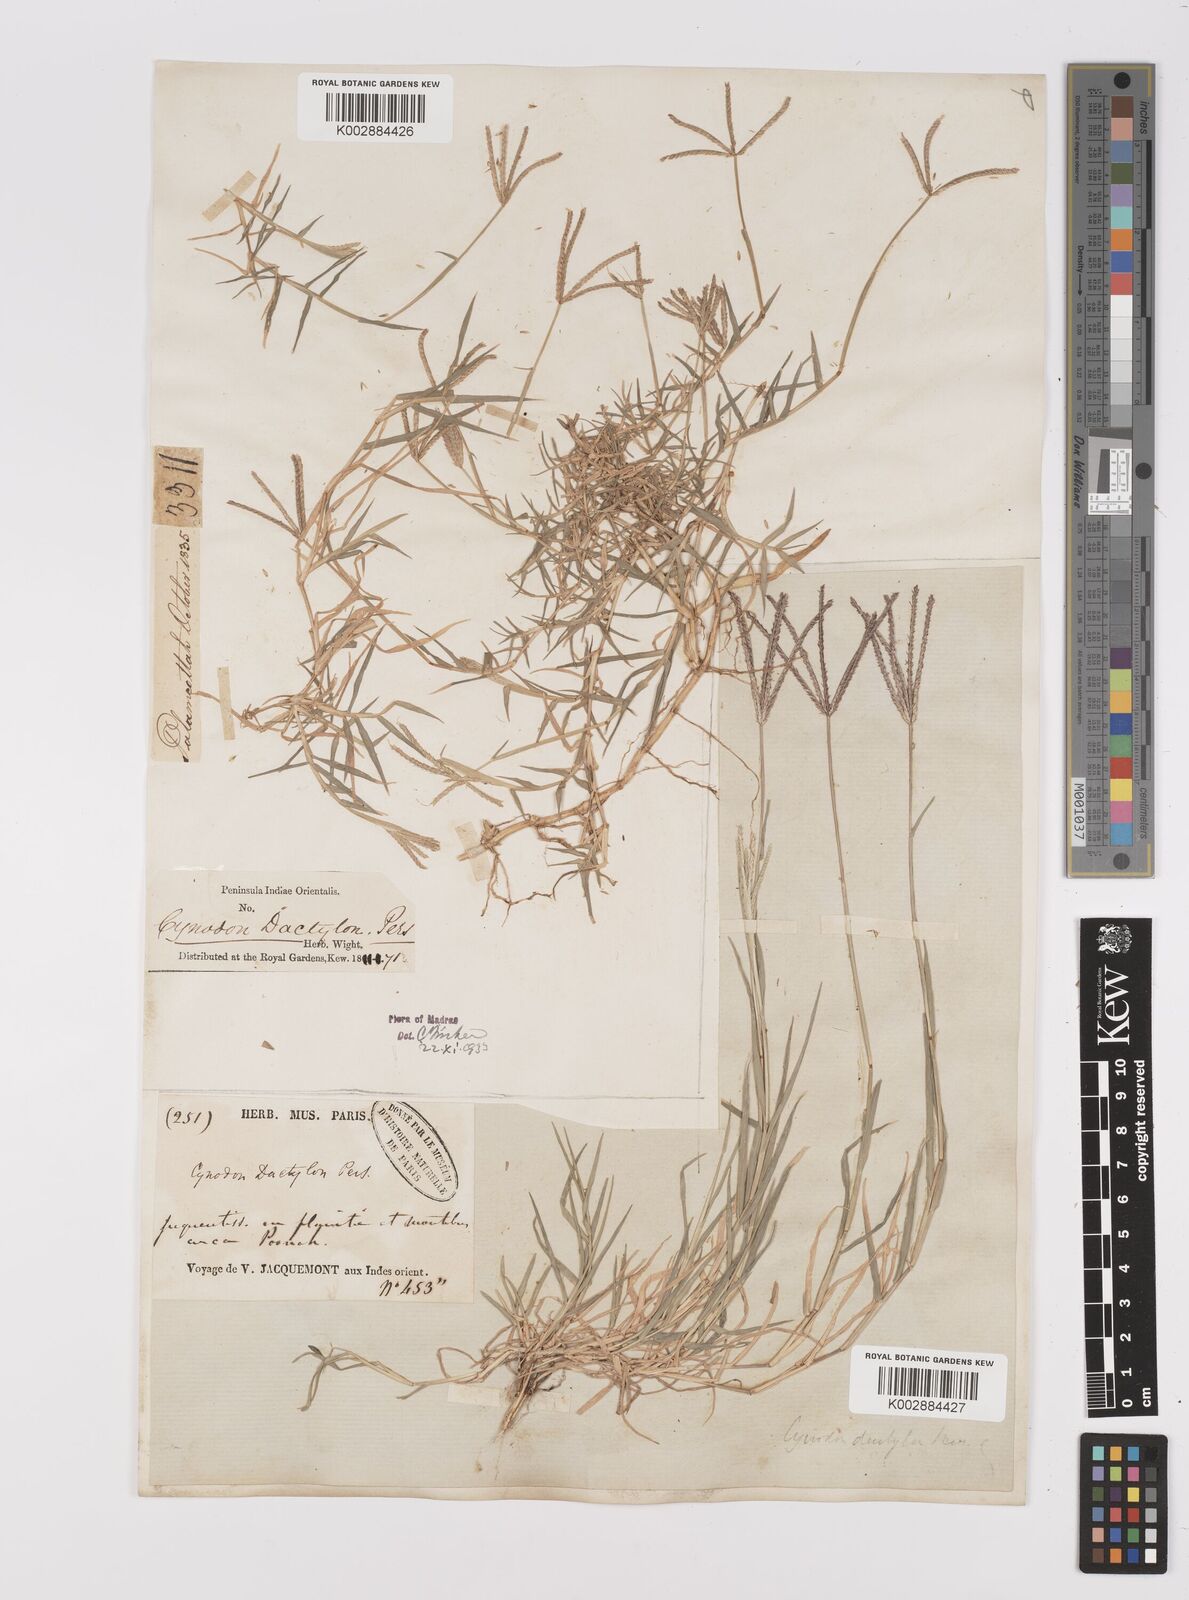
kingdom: Plantae
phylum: Tracheophyta
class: Liliopsida
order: Poales
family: Poaceae
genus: Cynodon
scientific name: Cynodon dactylon
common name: Bermuda grass
